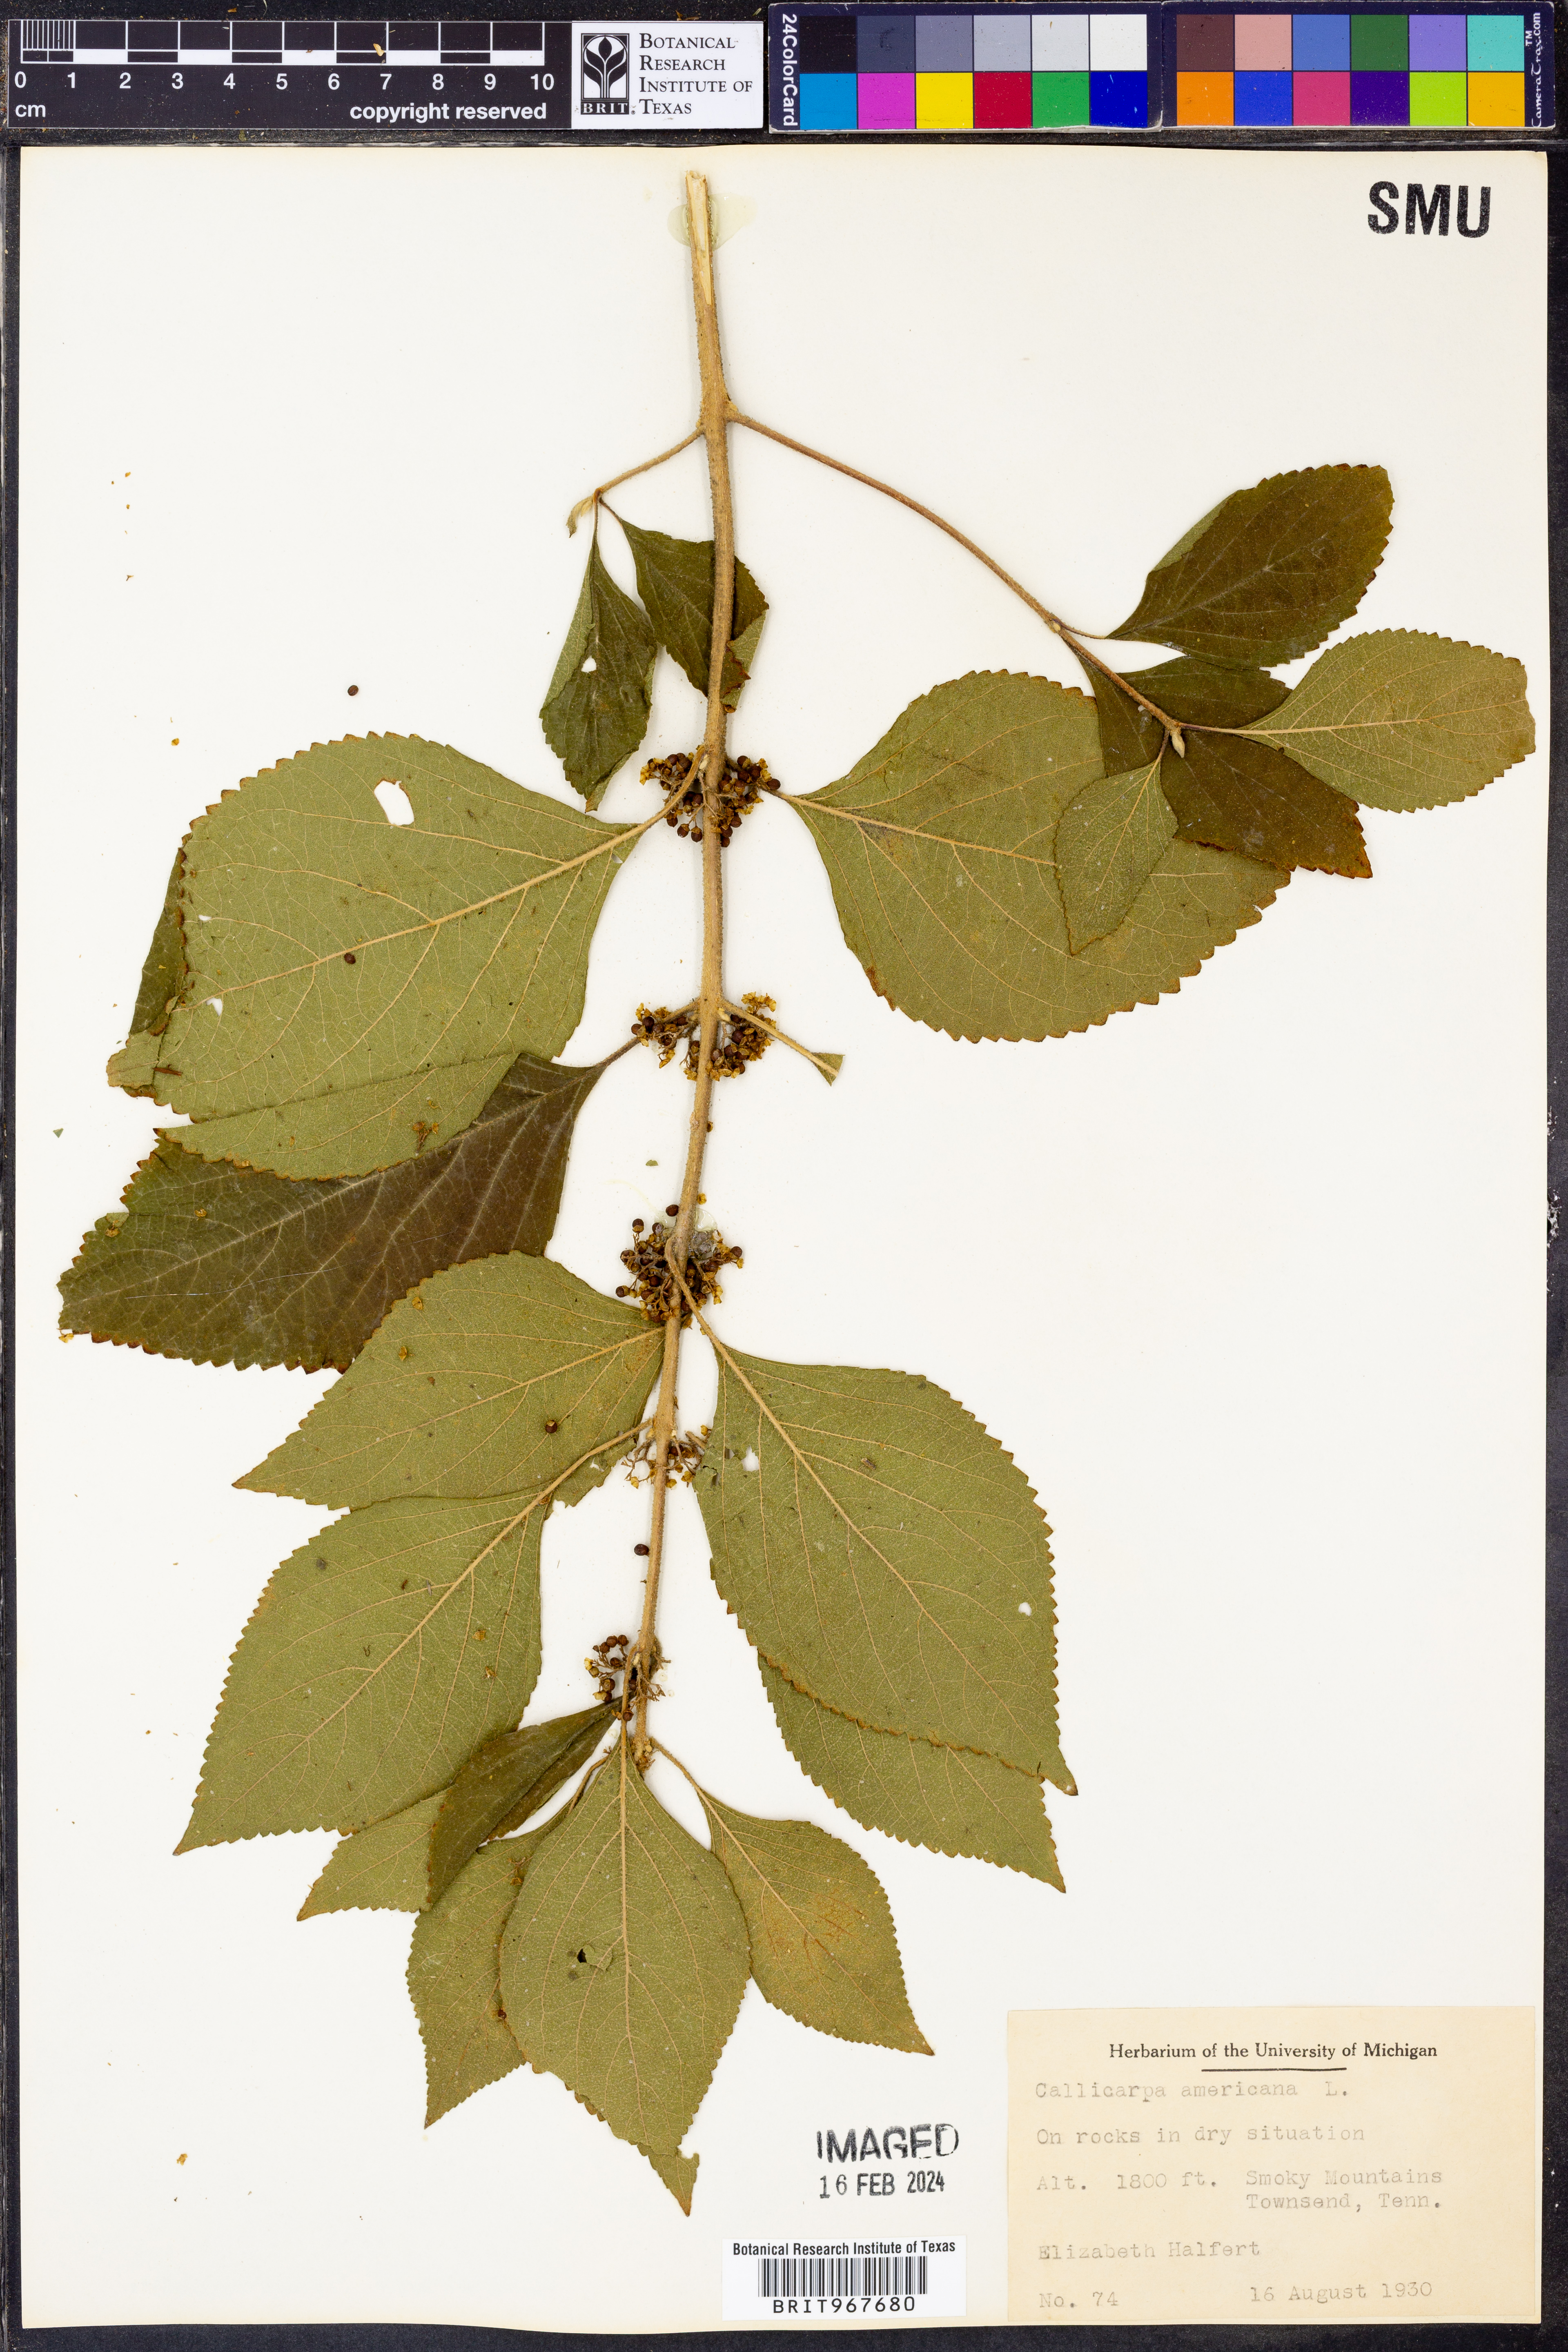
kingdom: Plantae
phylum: Tracheophyta
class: Magnoliopsida
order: Lamiales
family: Lamiaceae
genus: Callicarpa
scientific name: Callicarpa americana
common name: American beautyberry
